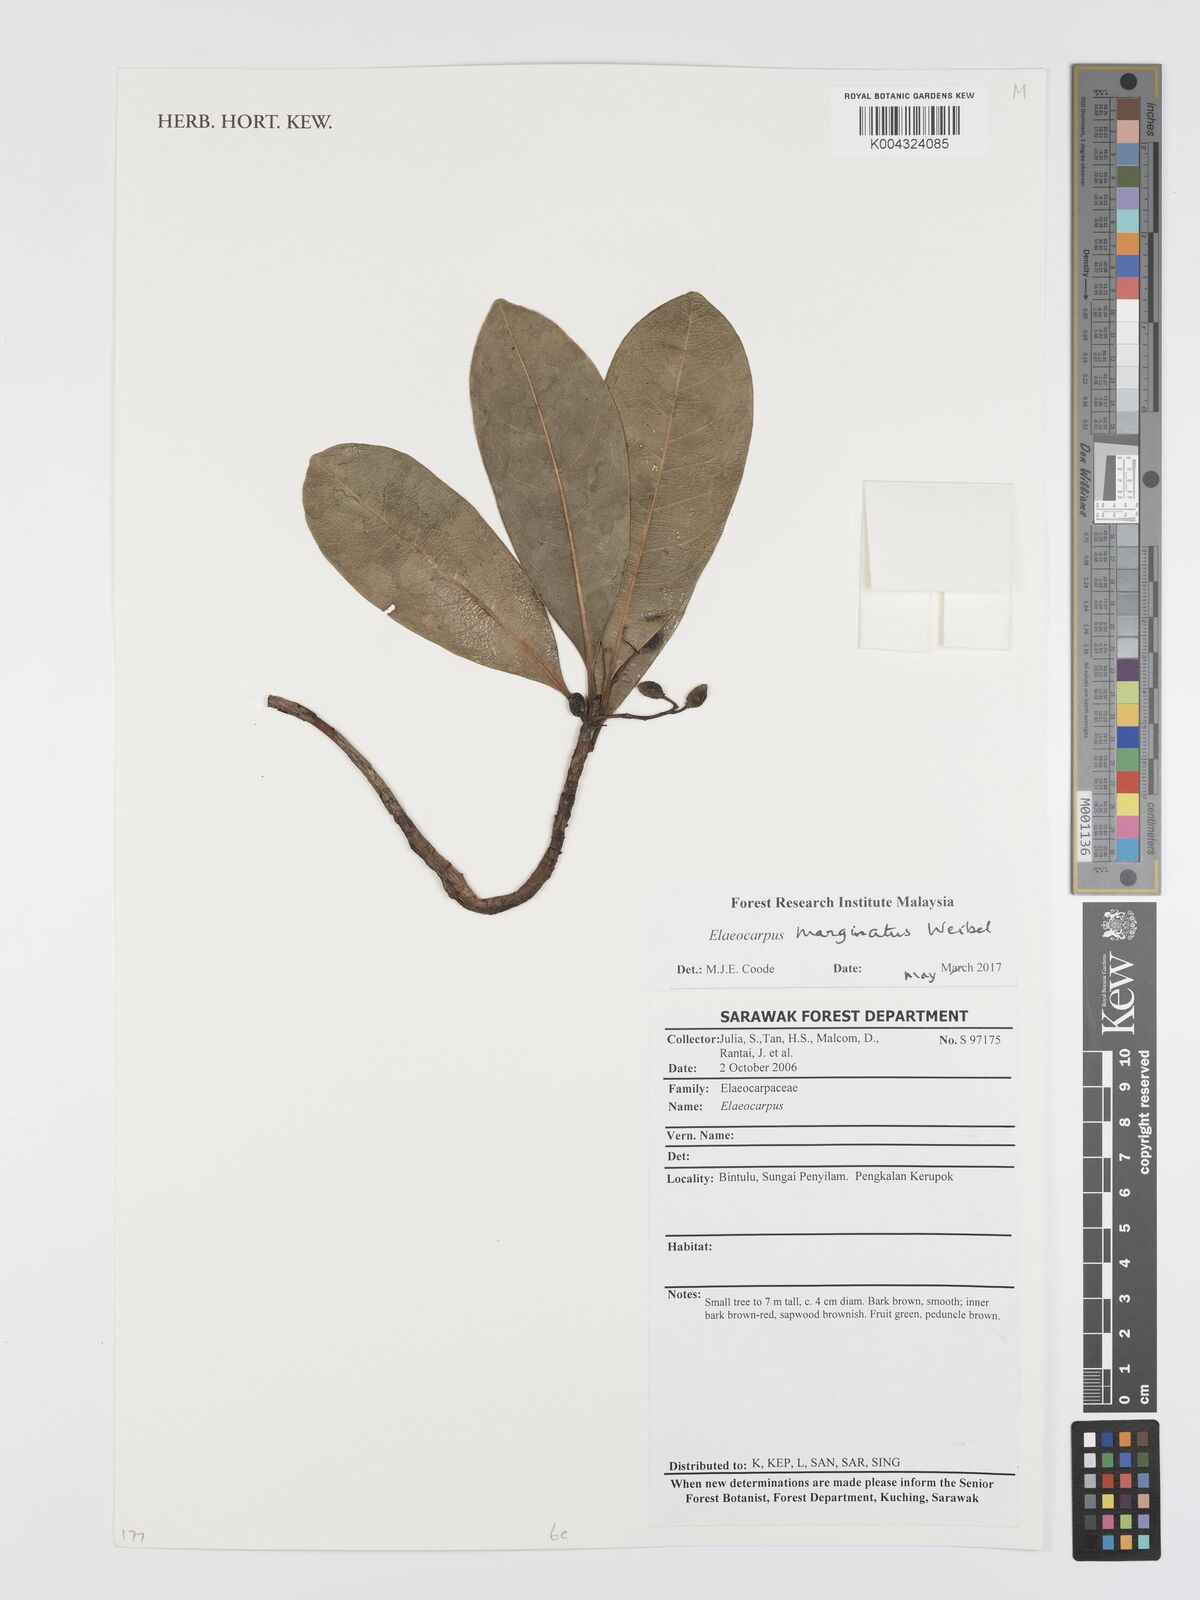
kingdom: Plantae
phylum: Tracheophyta
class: Magnoliopsida
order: Oxalidales
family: Elaeocarpaceae
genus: Elaeocarpus
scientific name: Elaeocarpus marginatus
